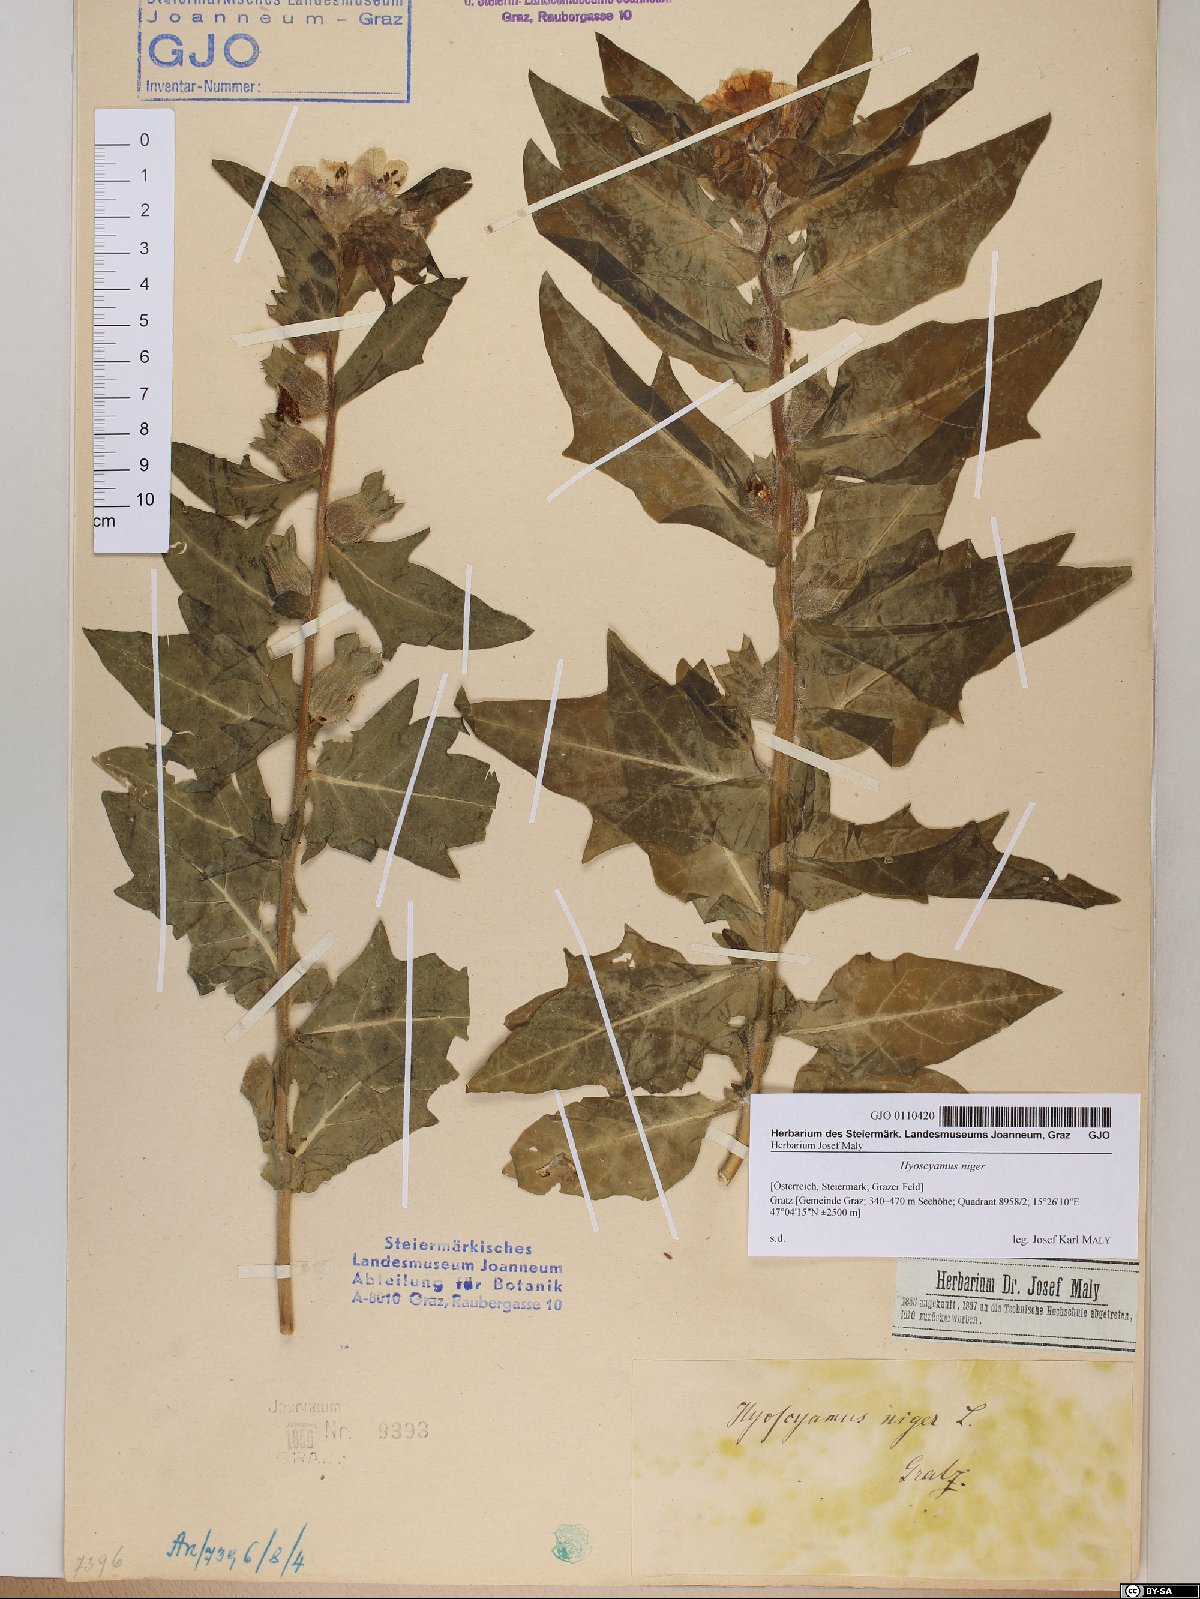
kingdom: Plantae
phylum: Tracheophyta
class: Magnoliopsida
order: Solanales
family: Solanaceae
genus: Hyoscyamus
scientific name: Hyoscyamus niger
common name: Henbane
